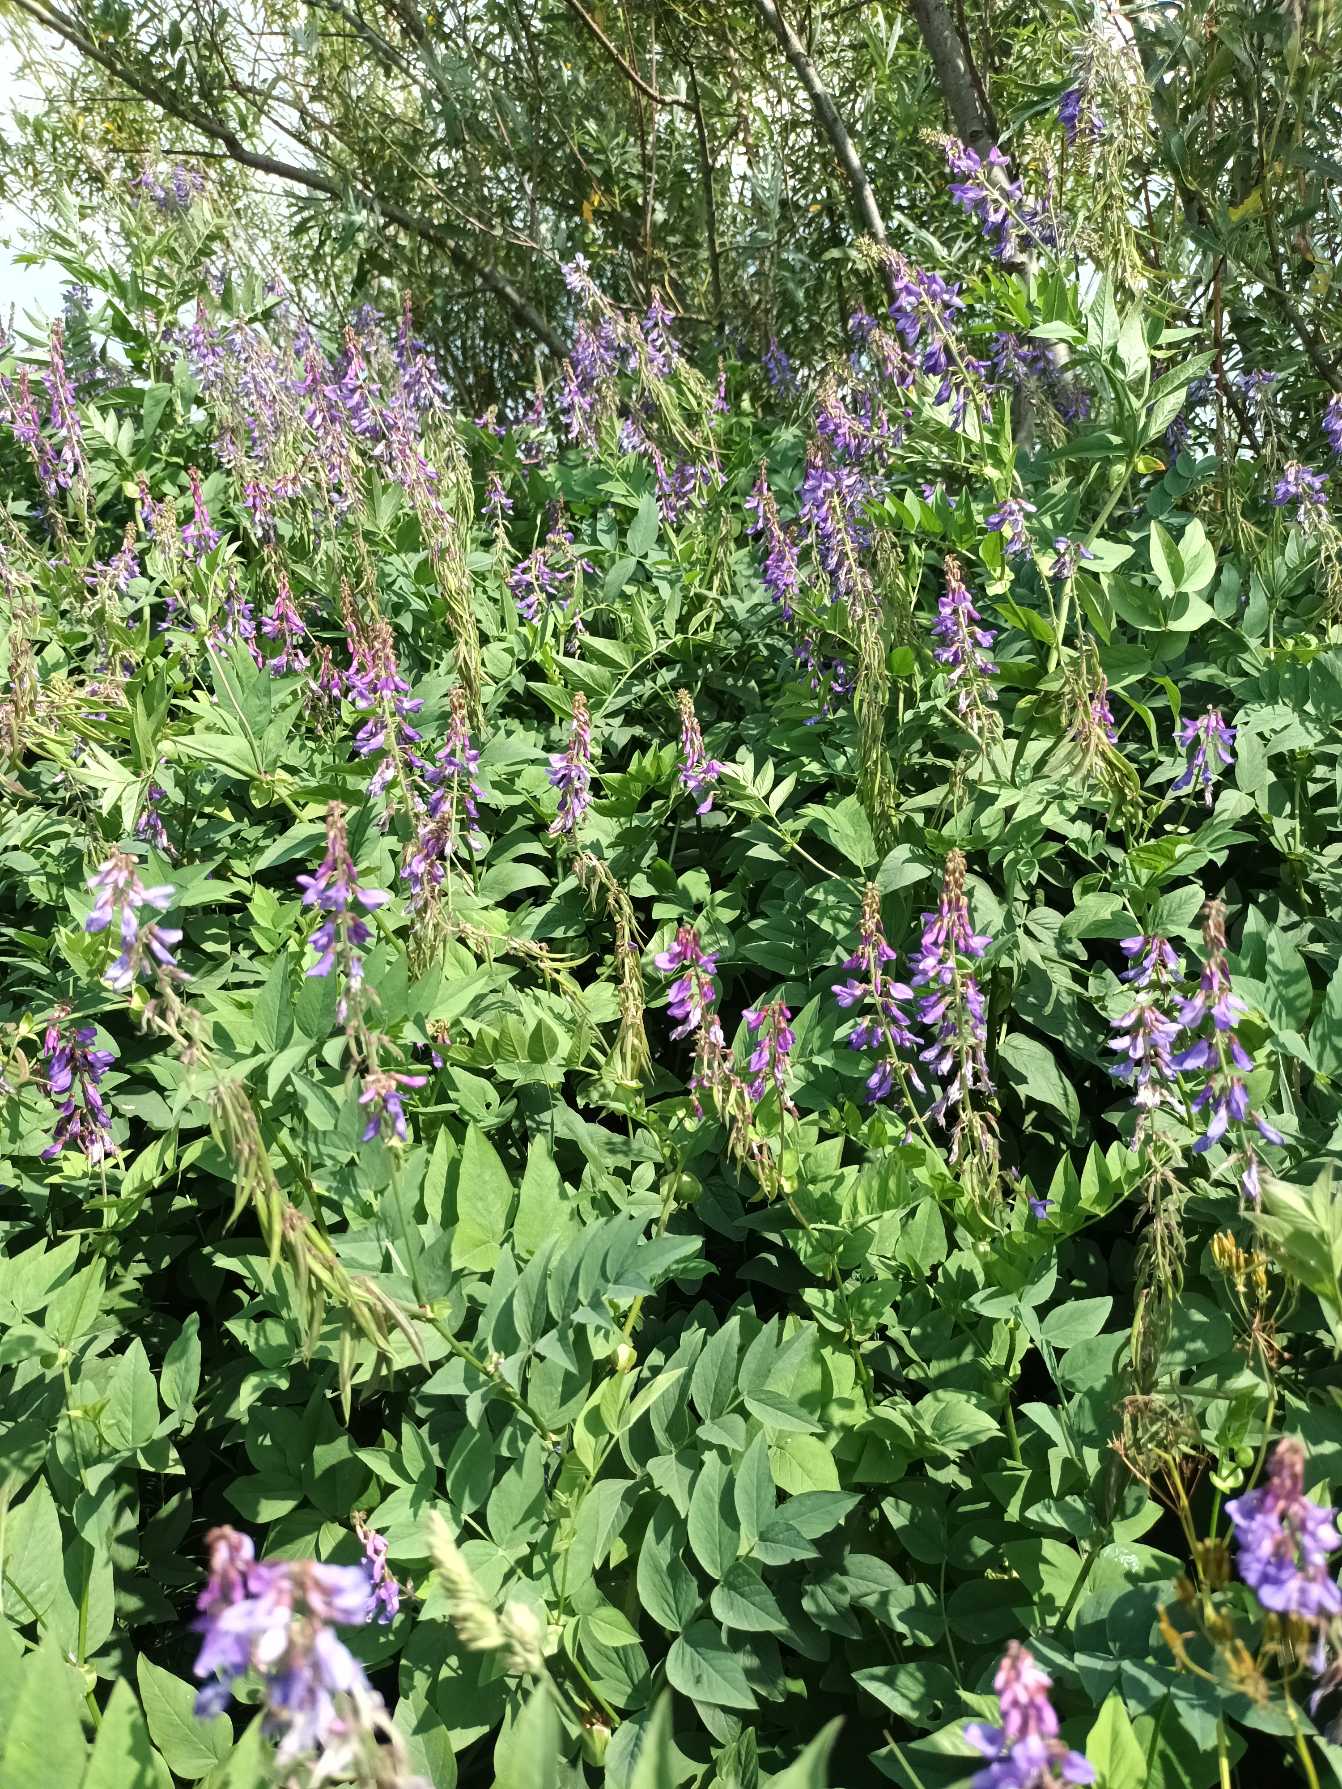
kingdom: Plantae
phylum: Tracheophyta
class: Magnoliopsida
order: Fabales
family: Fabaceae
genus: Galega
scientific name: Galega orientalis
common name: Blå stregbælg
